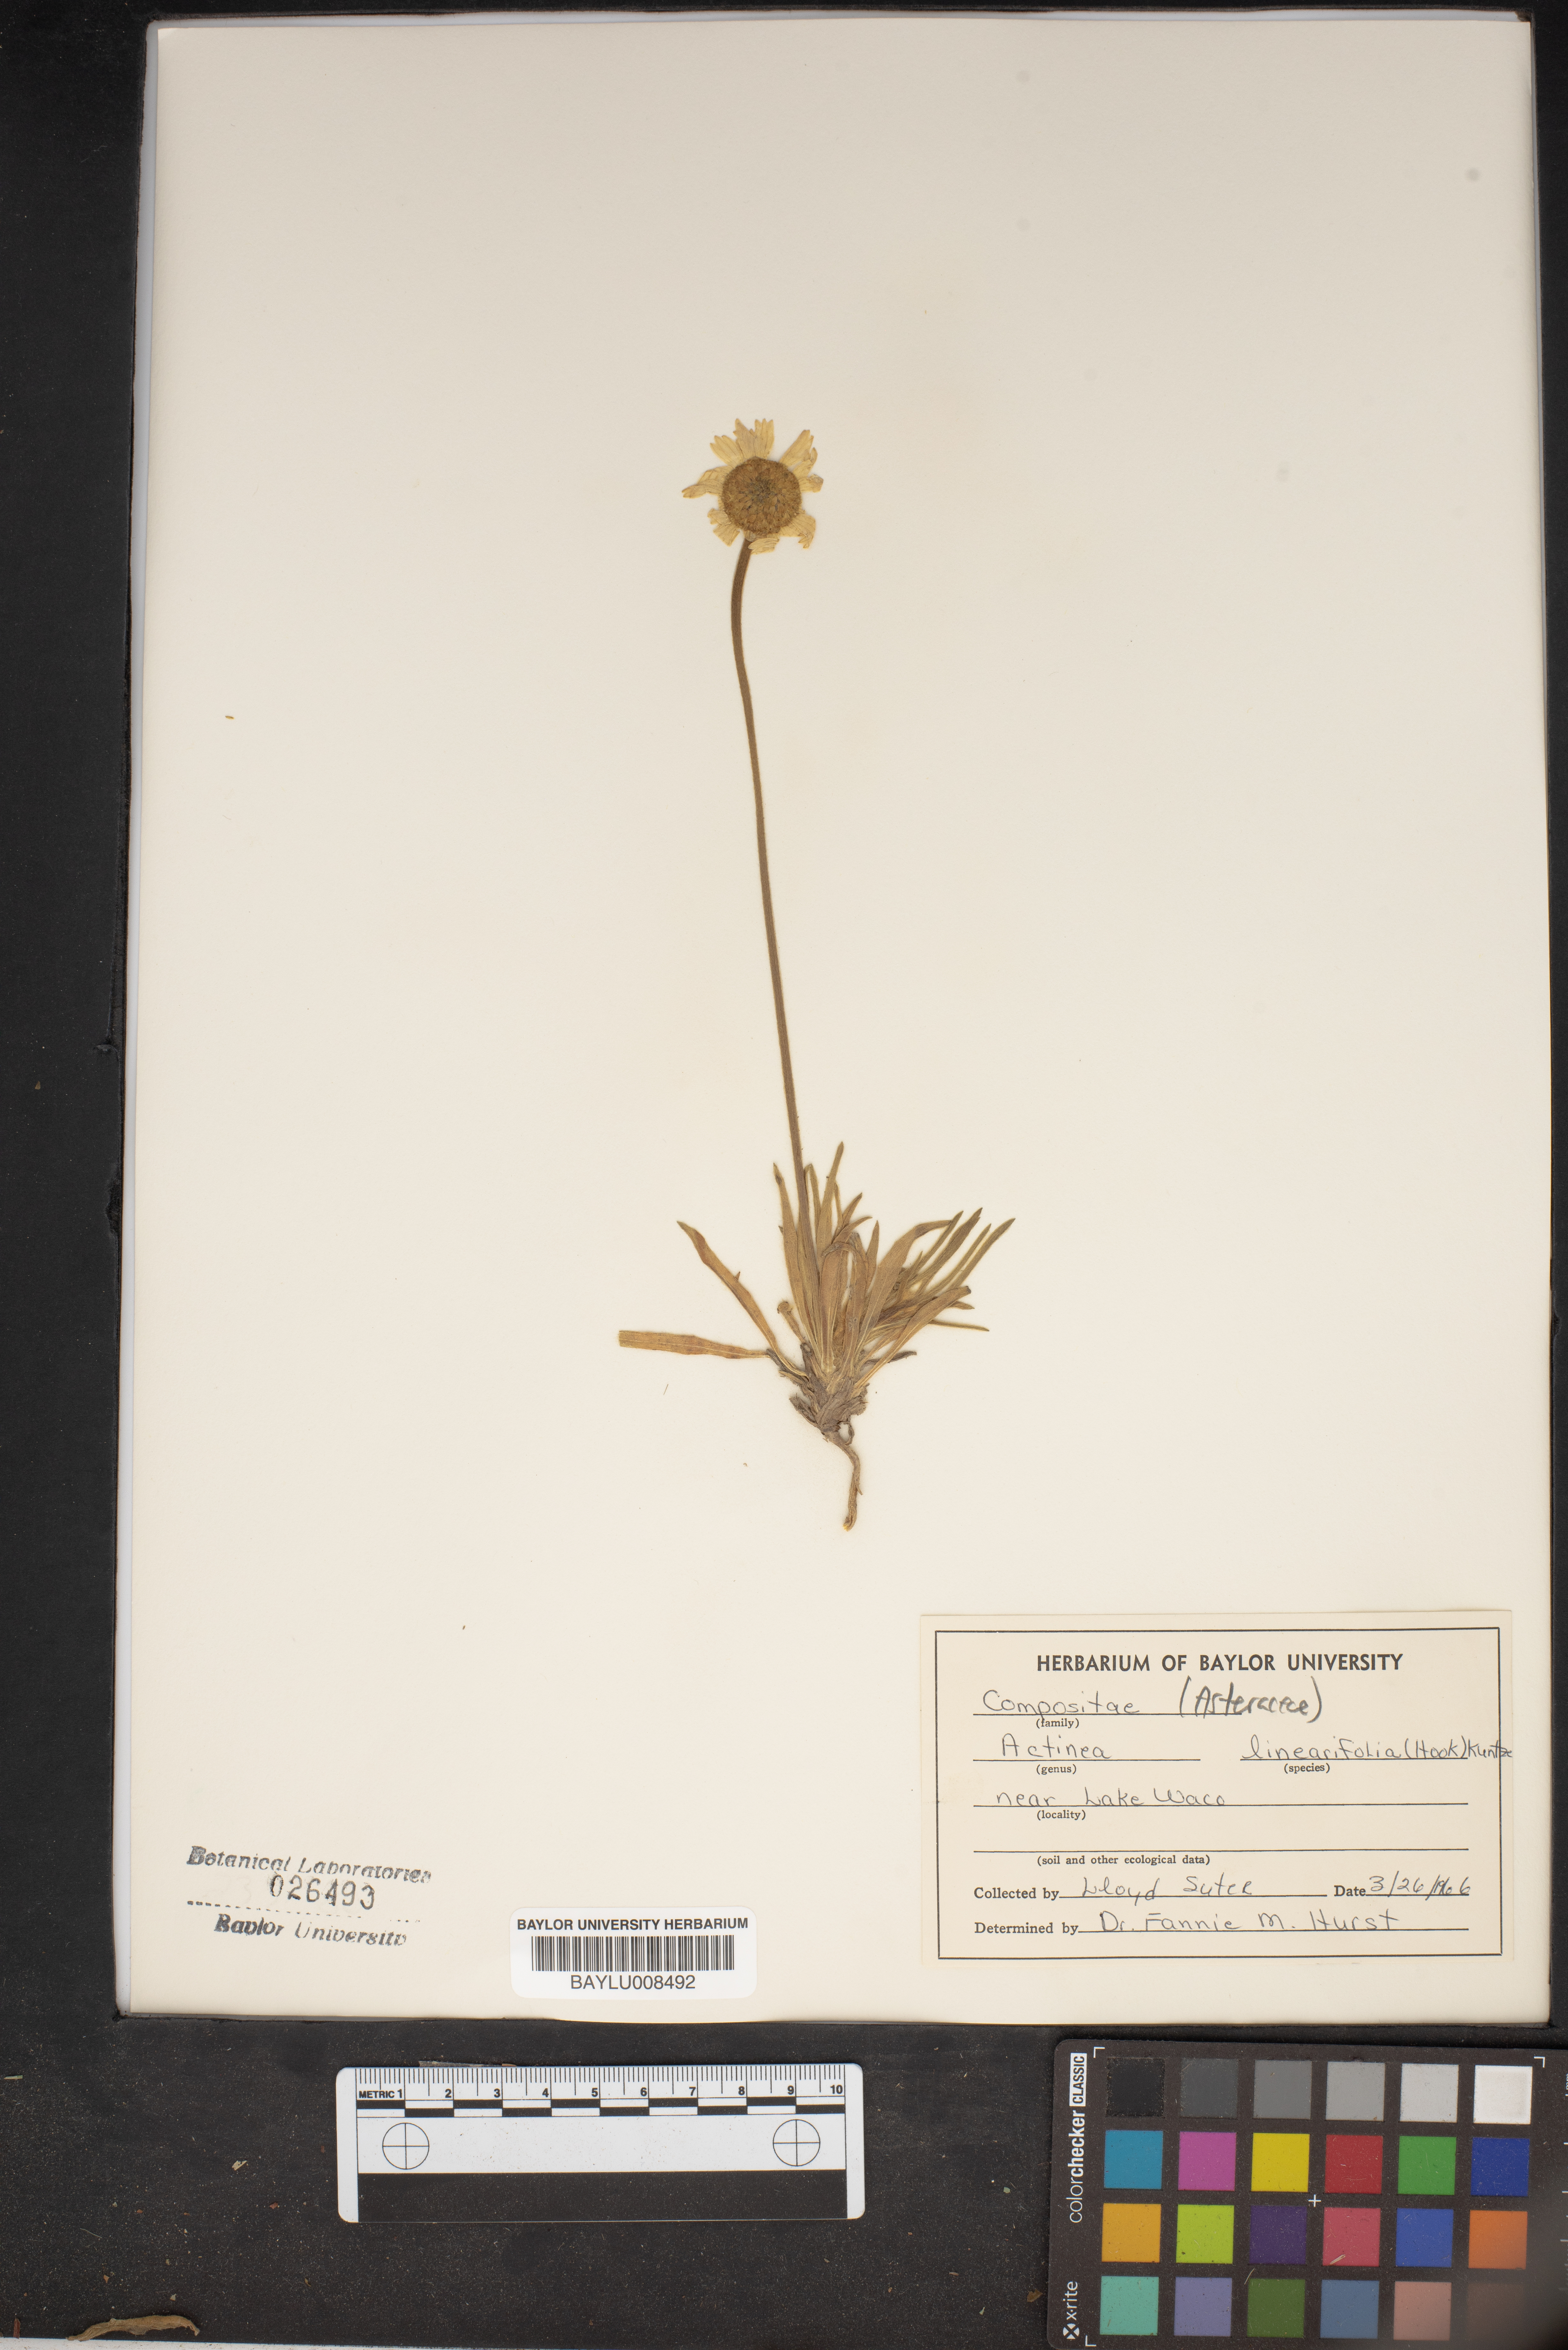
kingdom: Plantae
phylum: Tracheophyta
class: Magnoliopsida
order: Asterales
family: Asteraceae
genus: Tetraneuris
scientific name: Tetraneuris linearifolia
